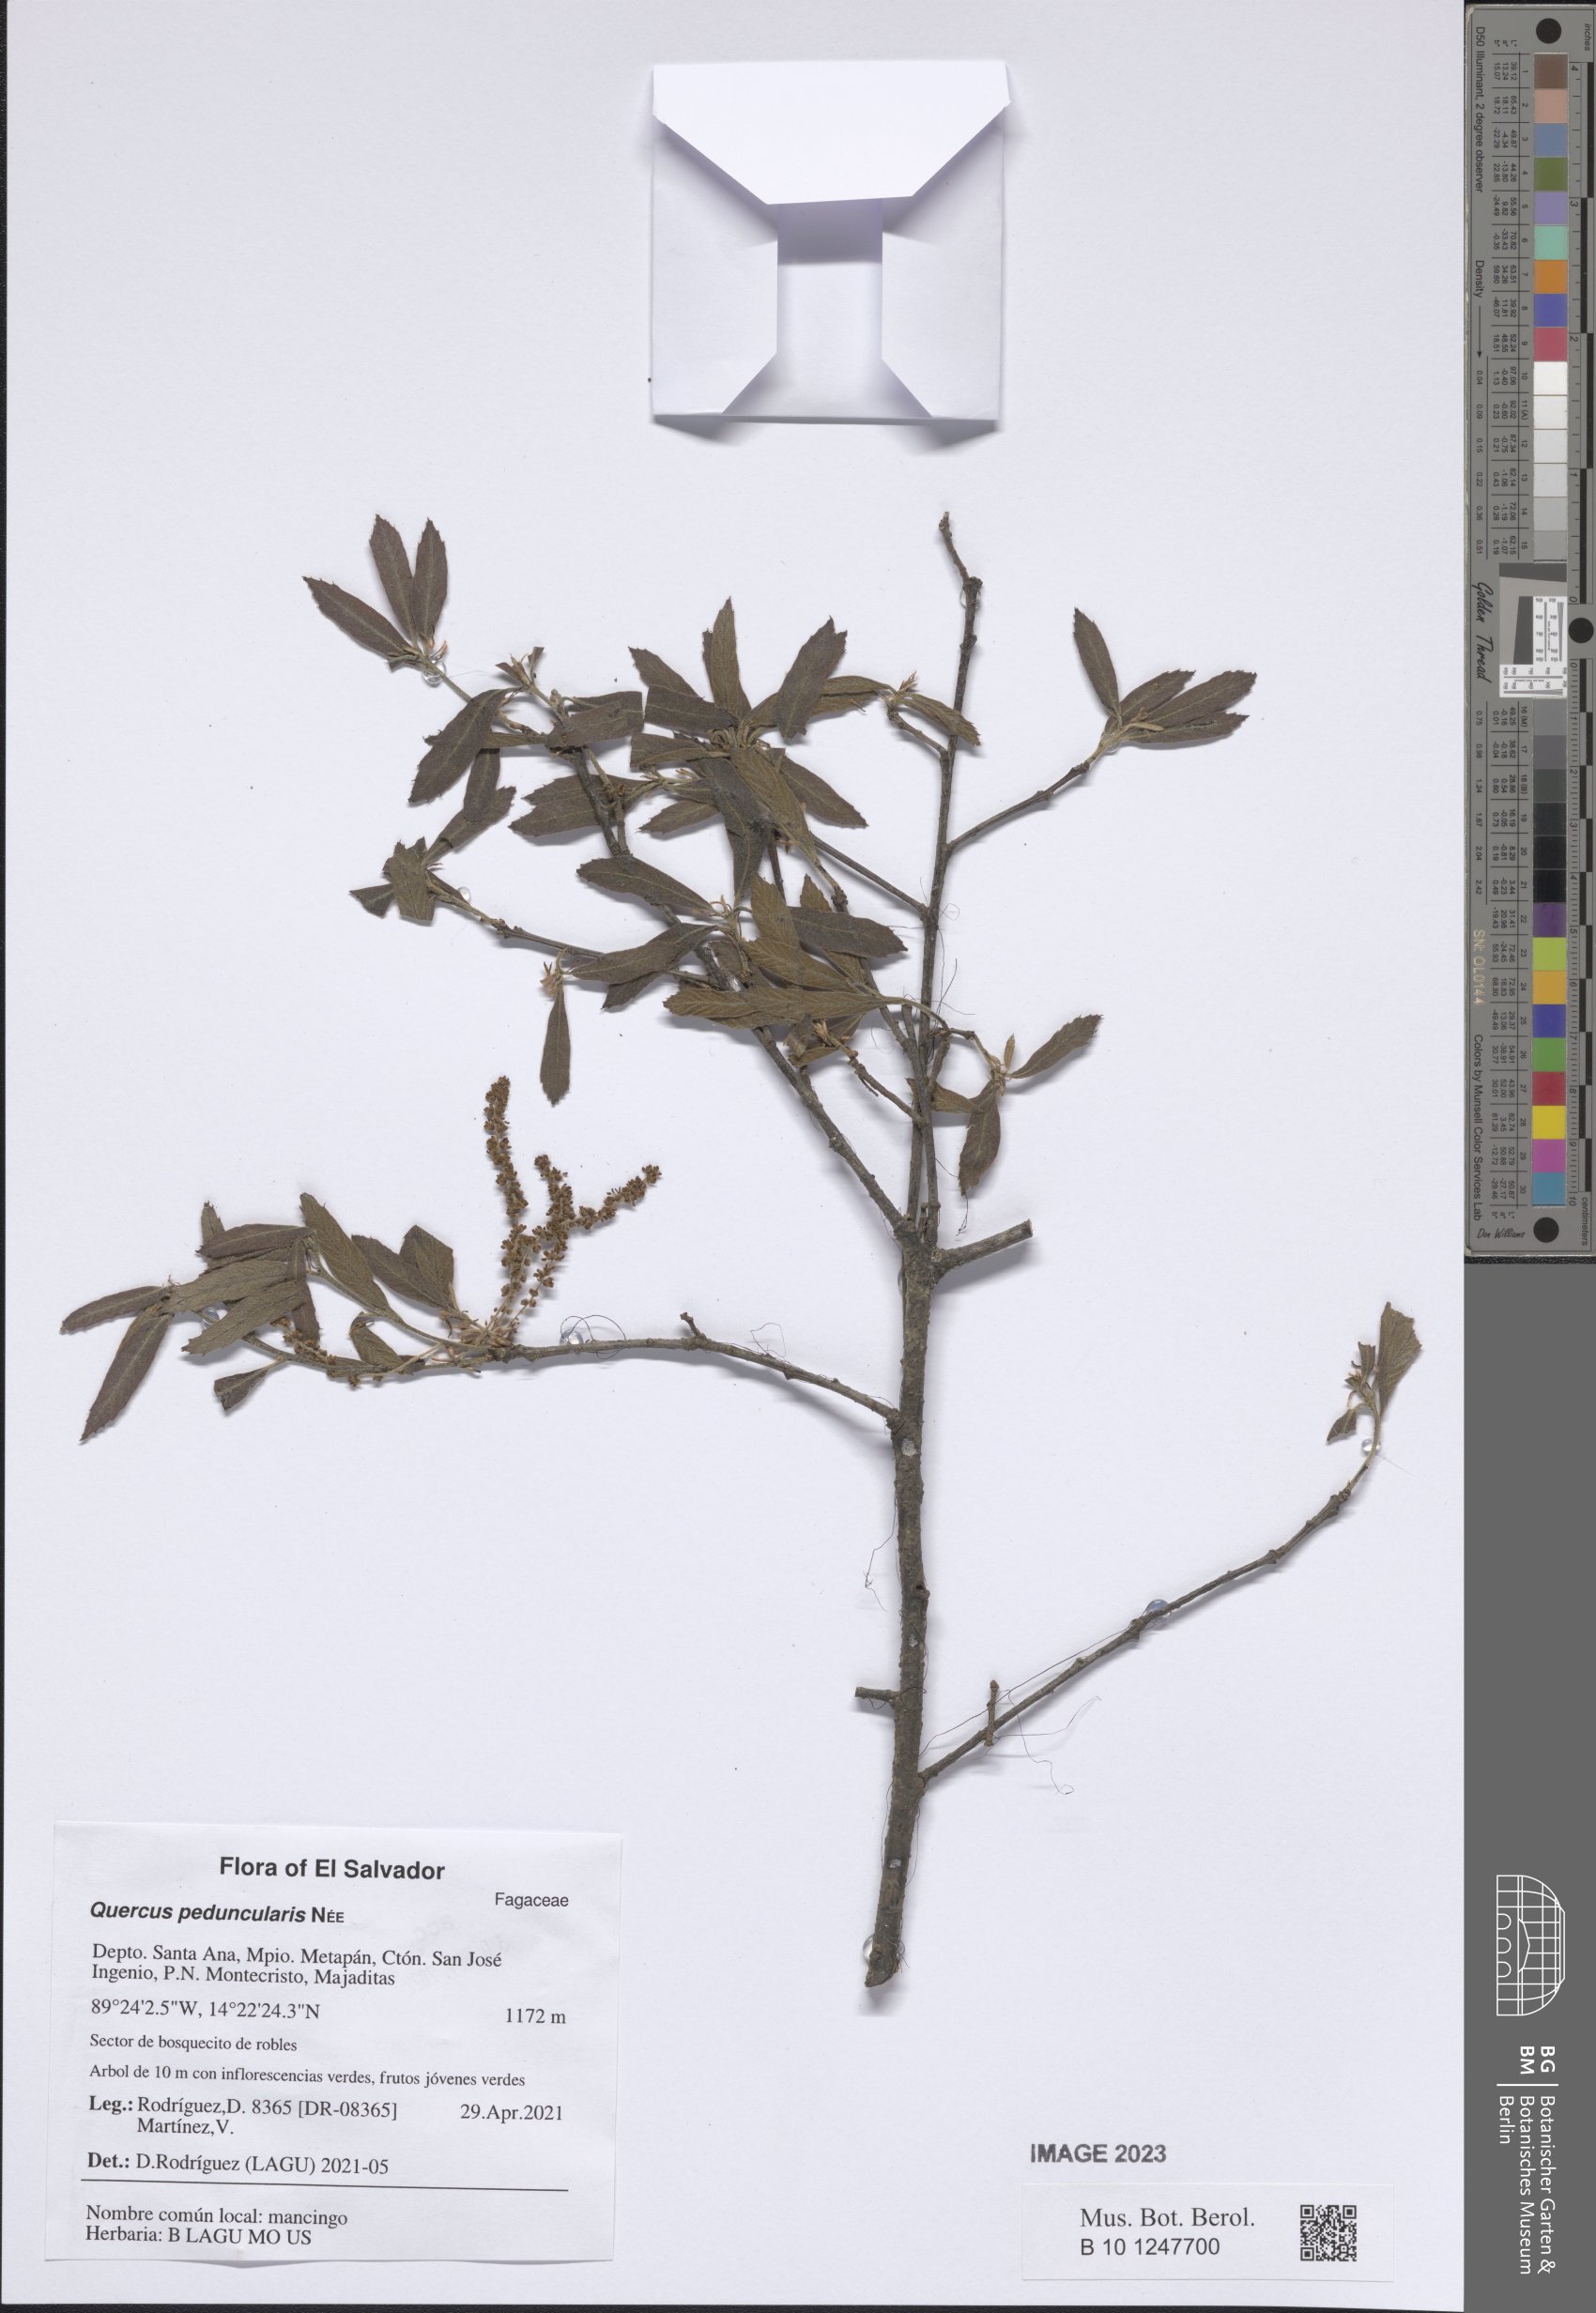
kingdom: Plantae
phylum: Tracheophyta
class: Magnoliopsida
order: Fagales
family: Fagaceae
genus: Quercus
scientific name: Quercus peduncularis
